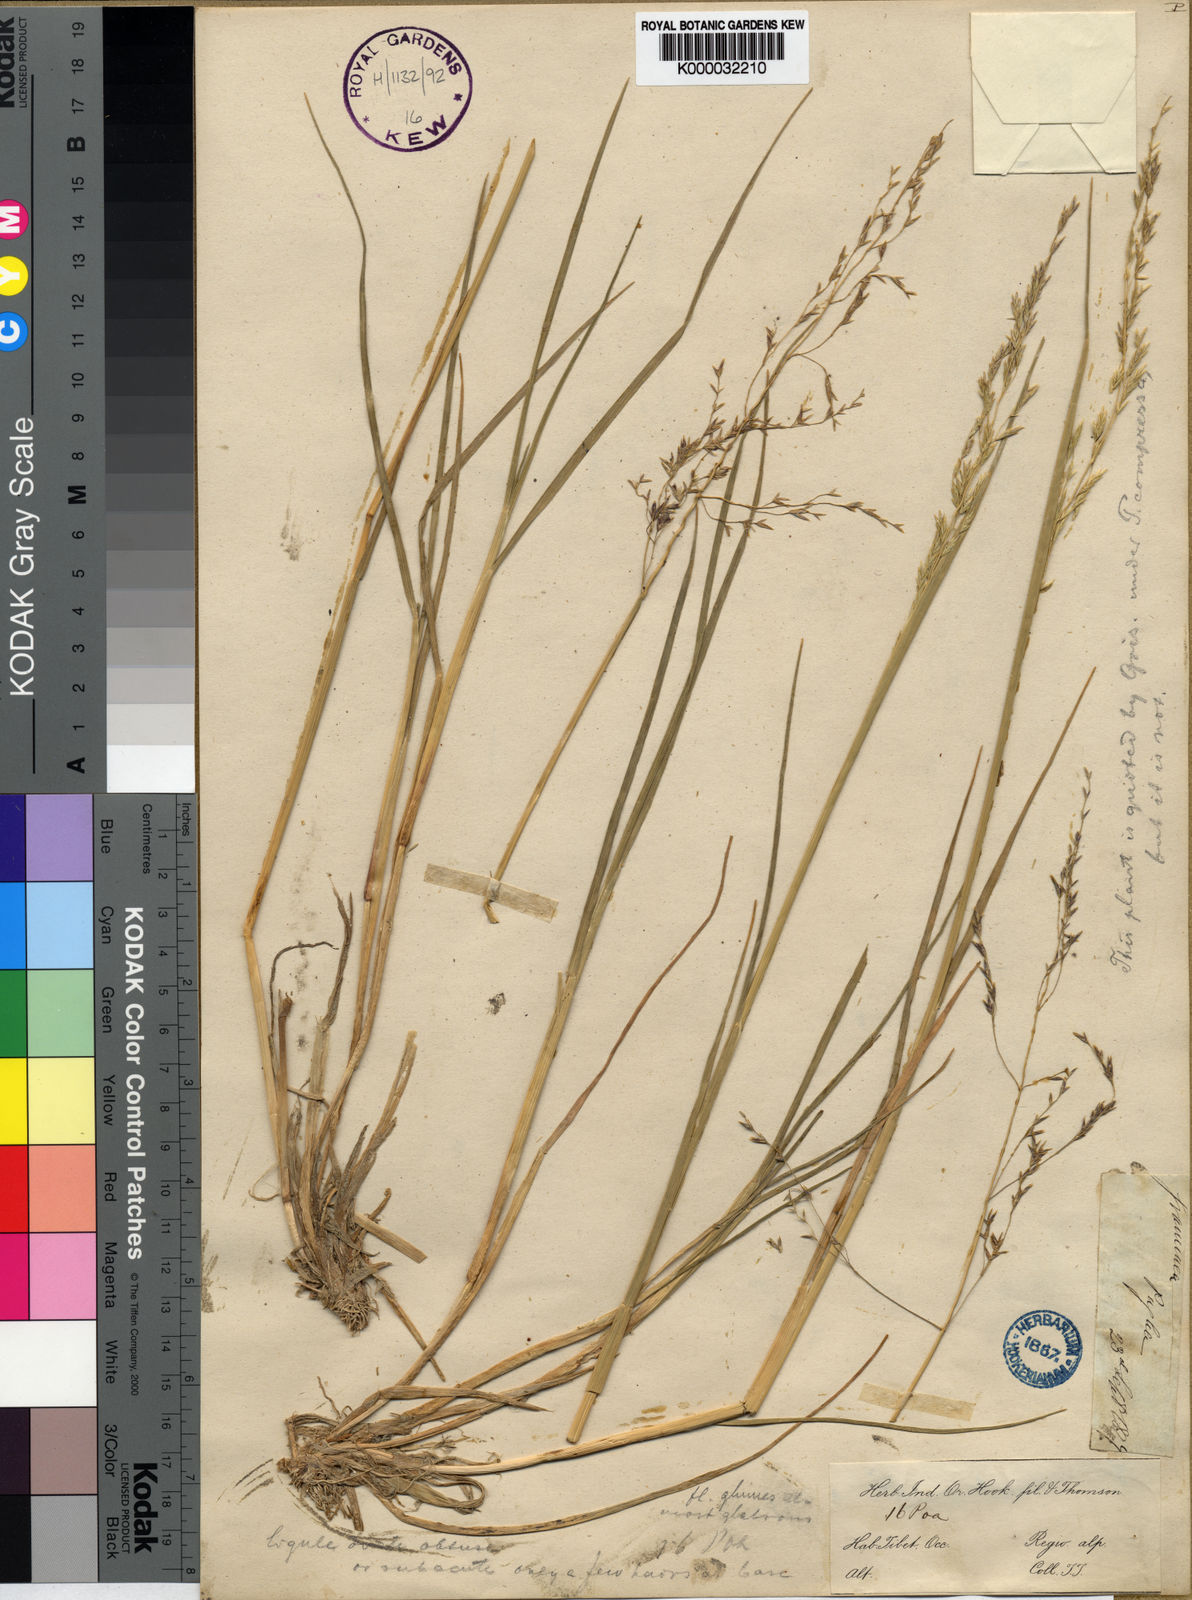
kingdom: Plantae
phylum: Tracheophyta
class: Liliopsida
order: Poales
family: Poaceae
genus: Puccinellia
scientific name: Puccinellia thomsonii
